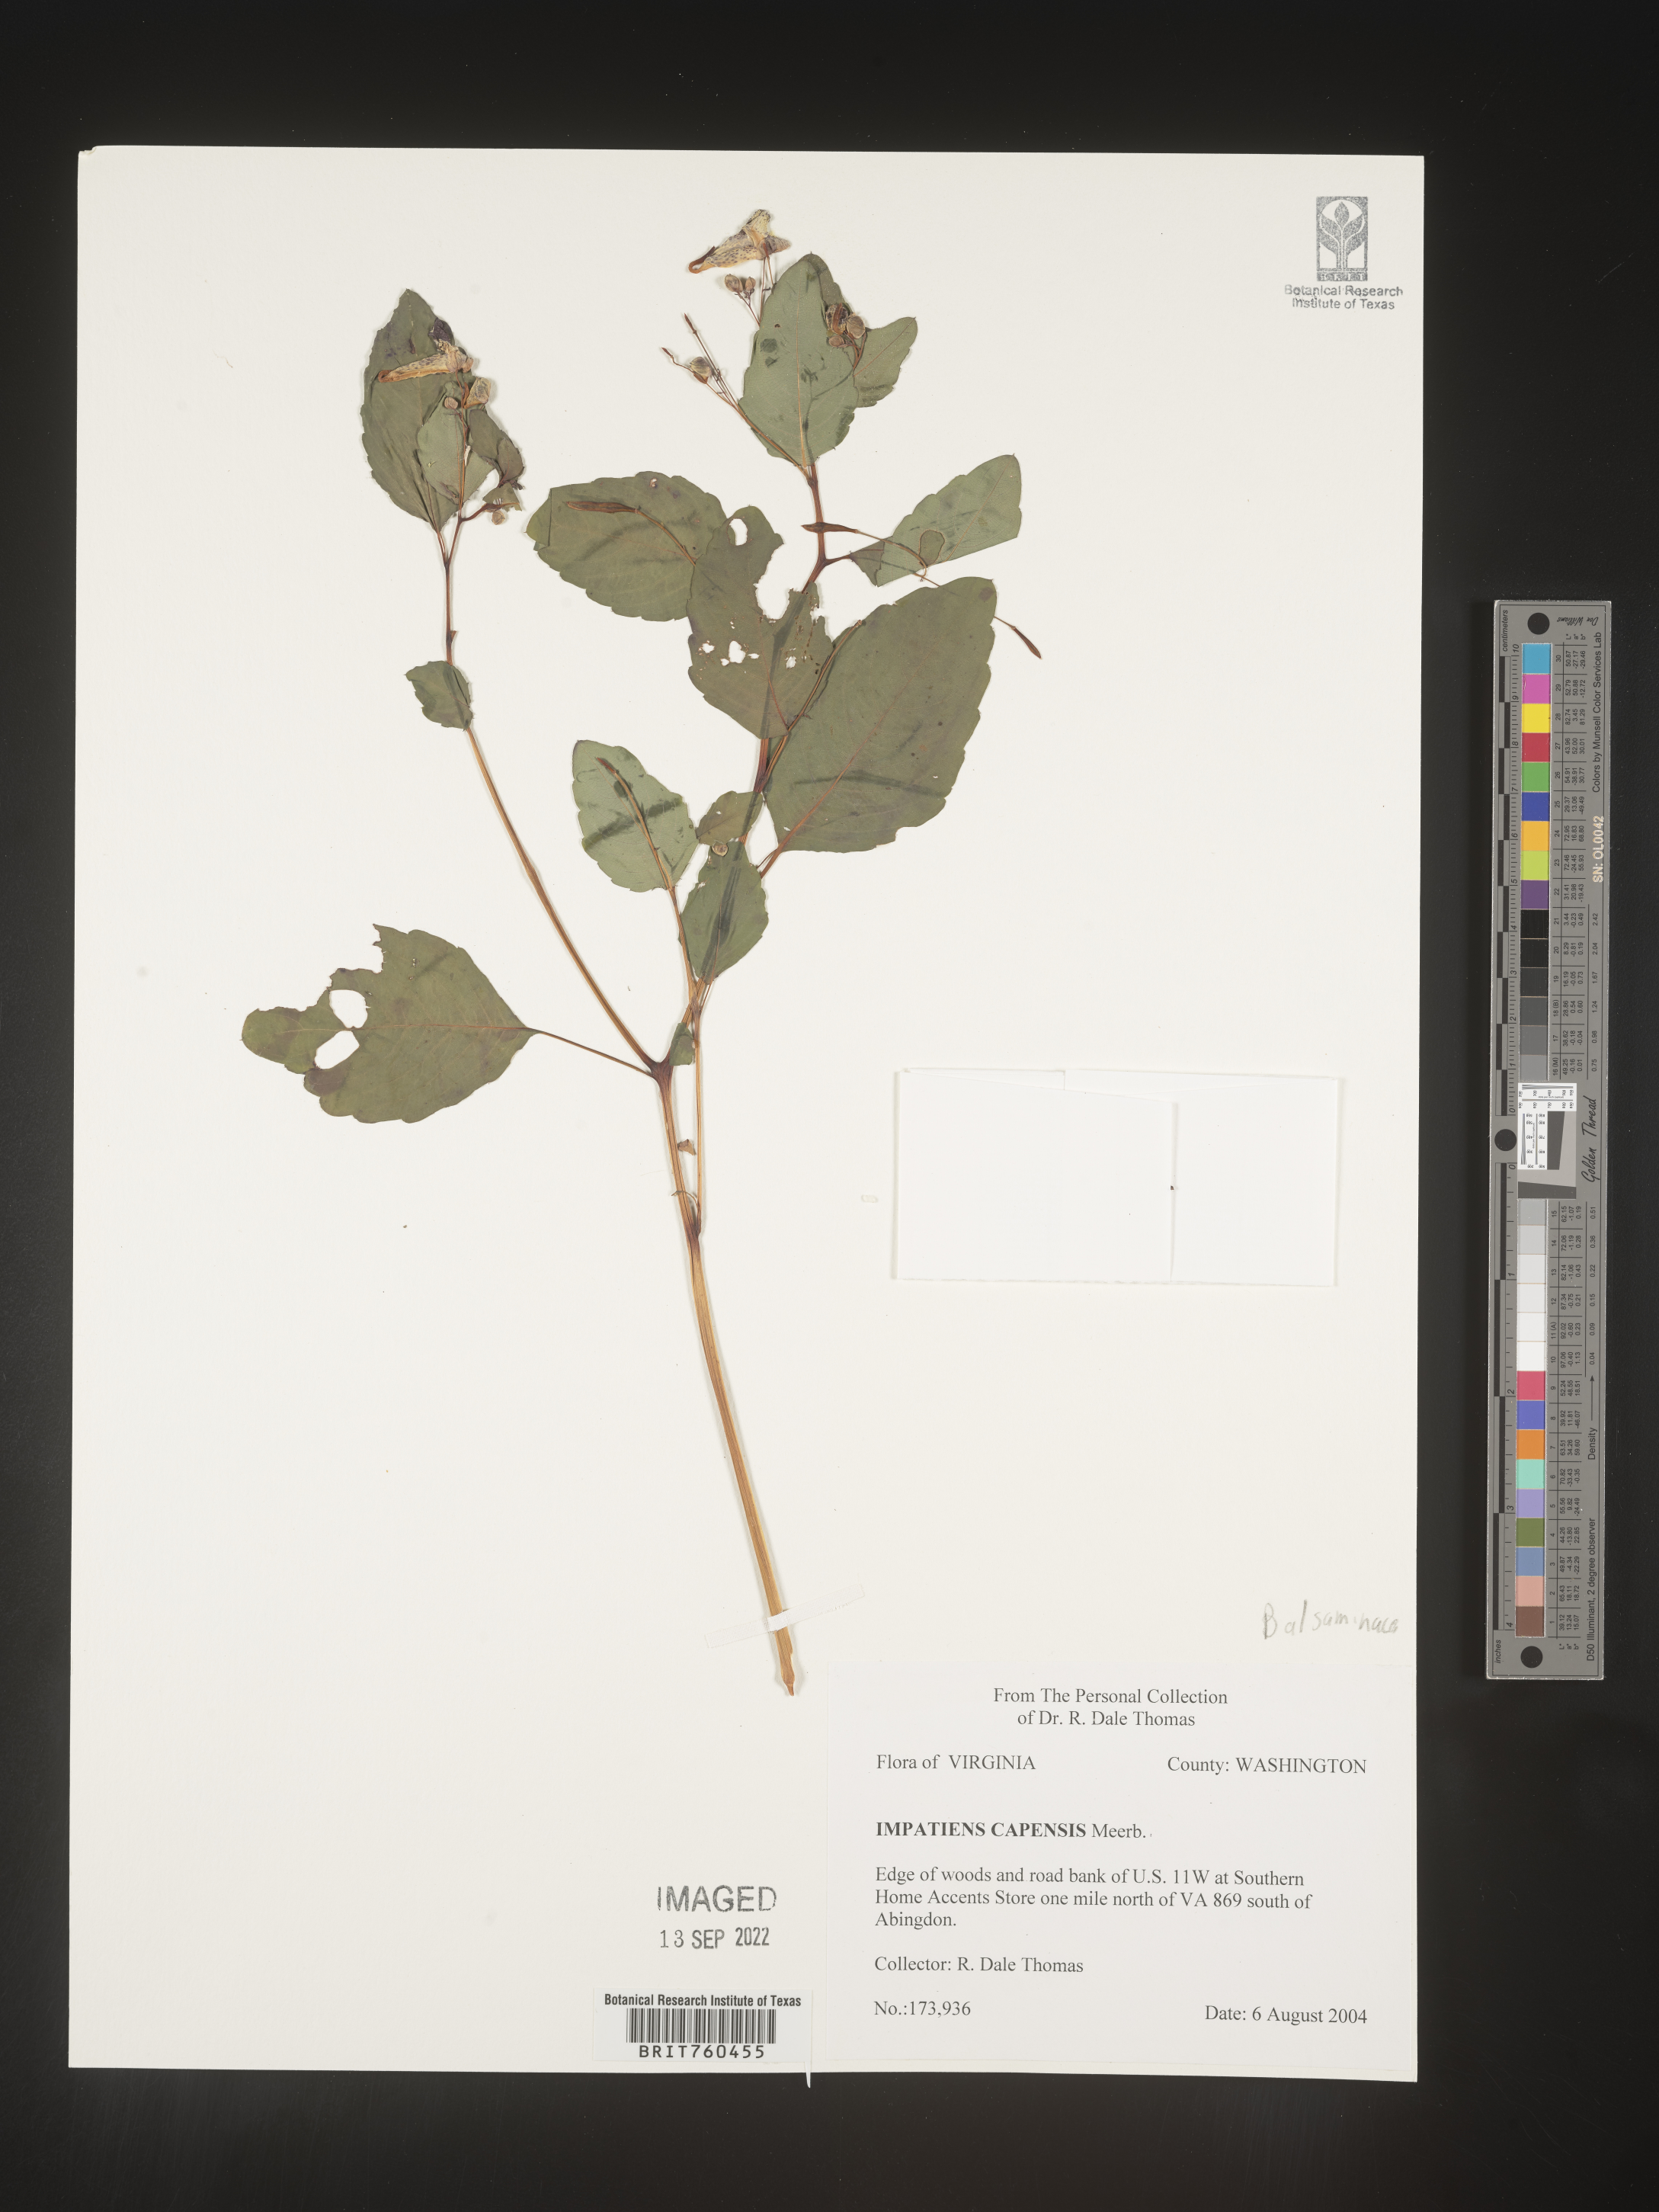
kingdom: Plantae
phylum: Tracheophyta
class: Magnoliopsida
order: Ericales
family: Balsaminaceae
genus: Impatiens
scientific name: Impatiens capensis
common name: Orange balsam
